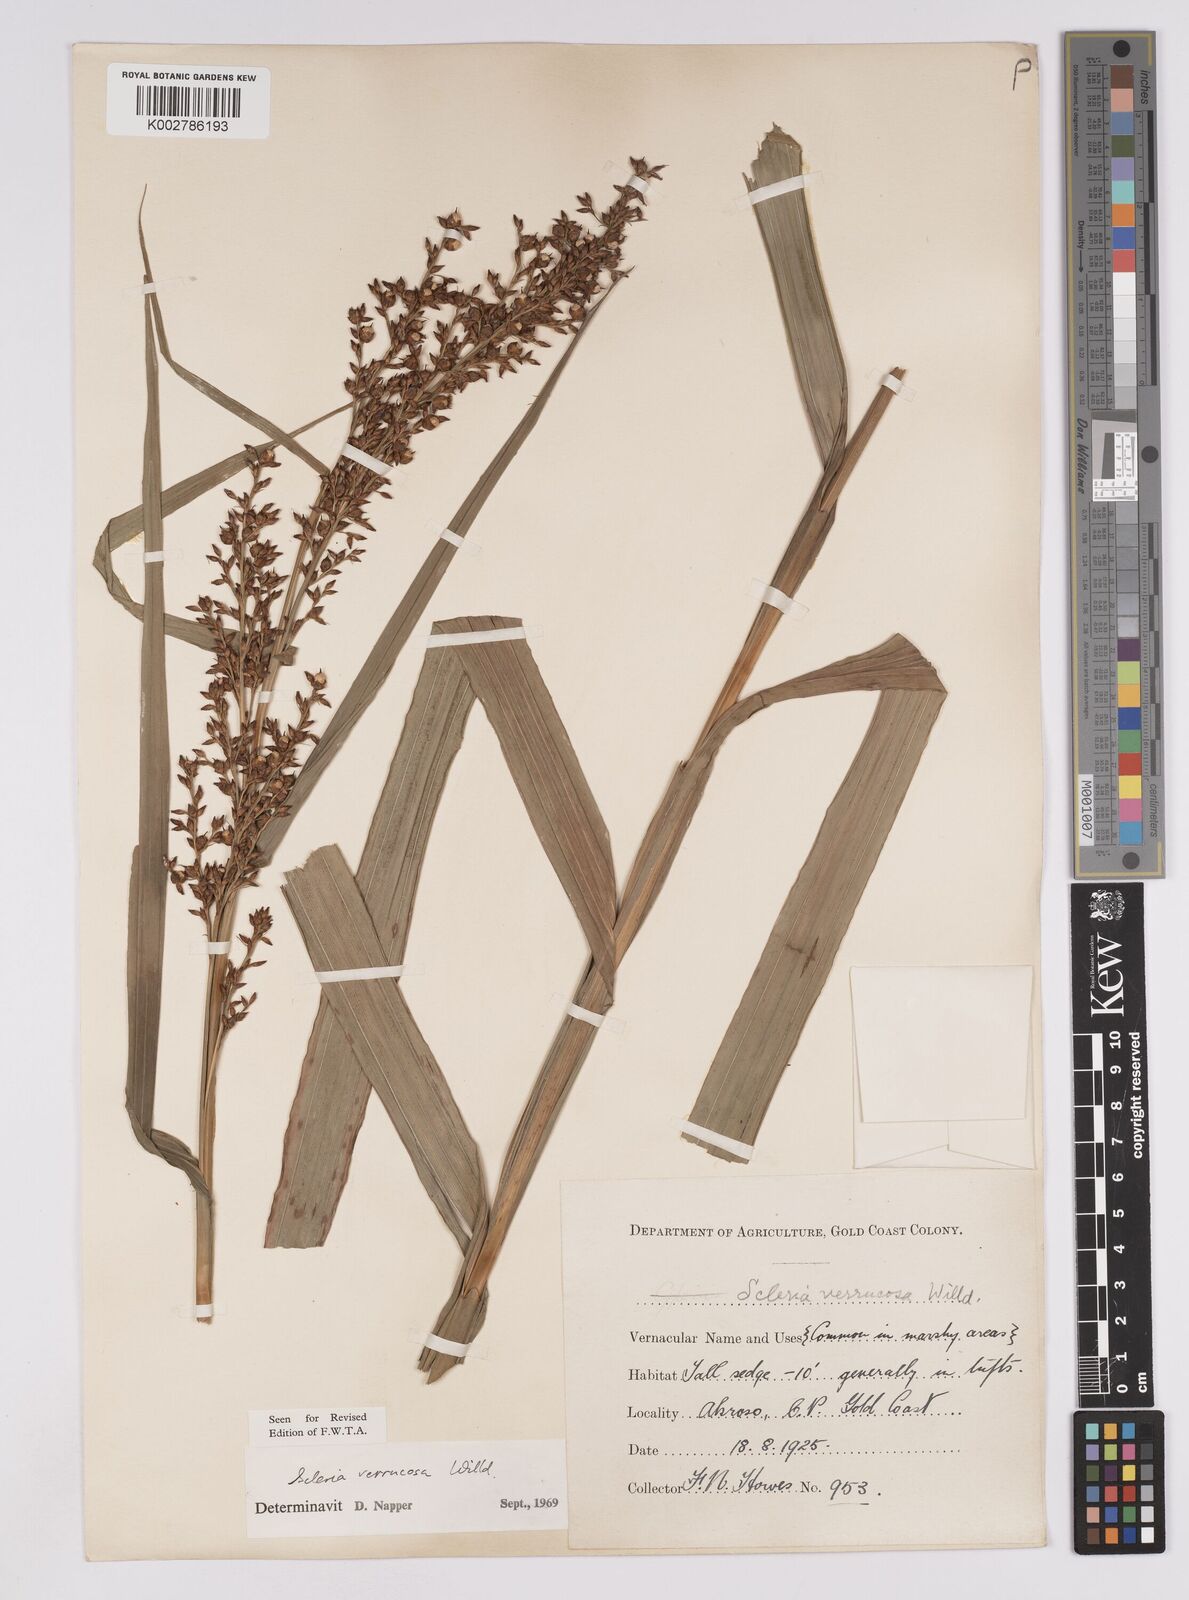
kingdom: Plantae
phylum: Tracheophyta
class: Liliopsida
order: Poales
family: Cyperaceae
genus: Scleria
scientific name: Scleria verrucosa
